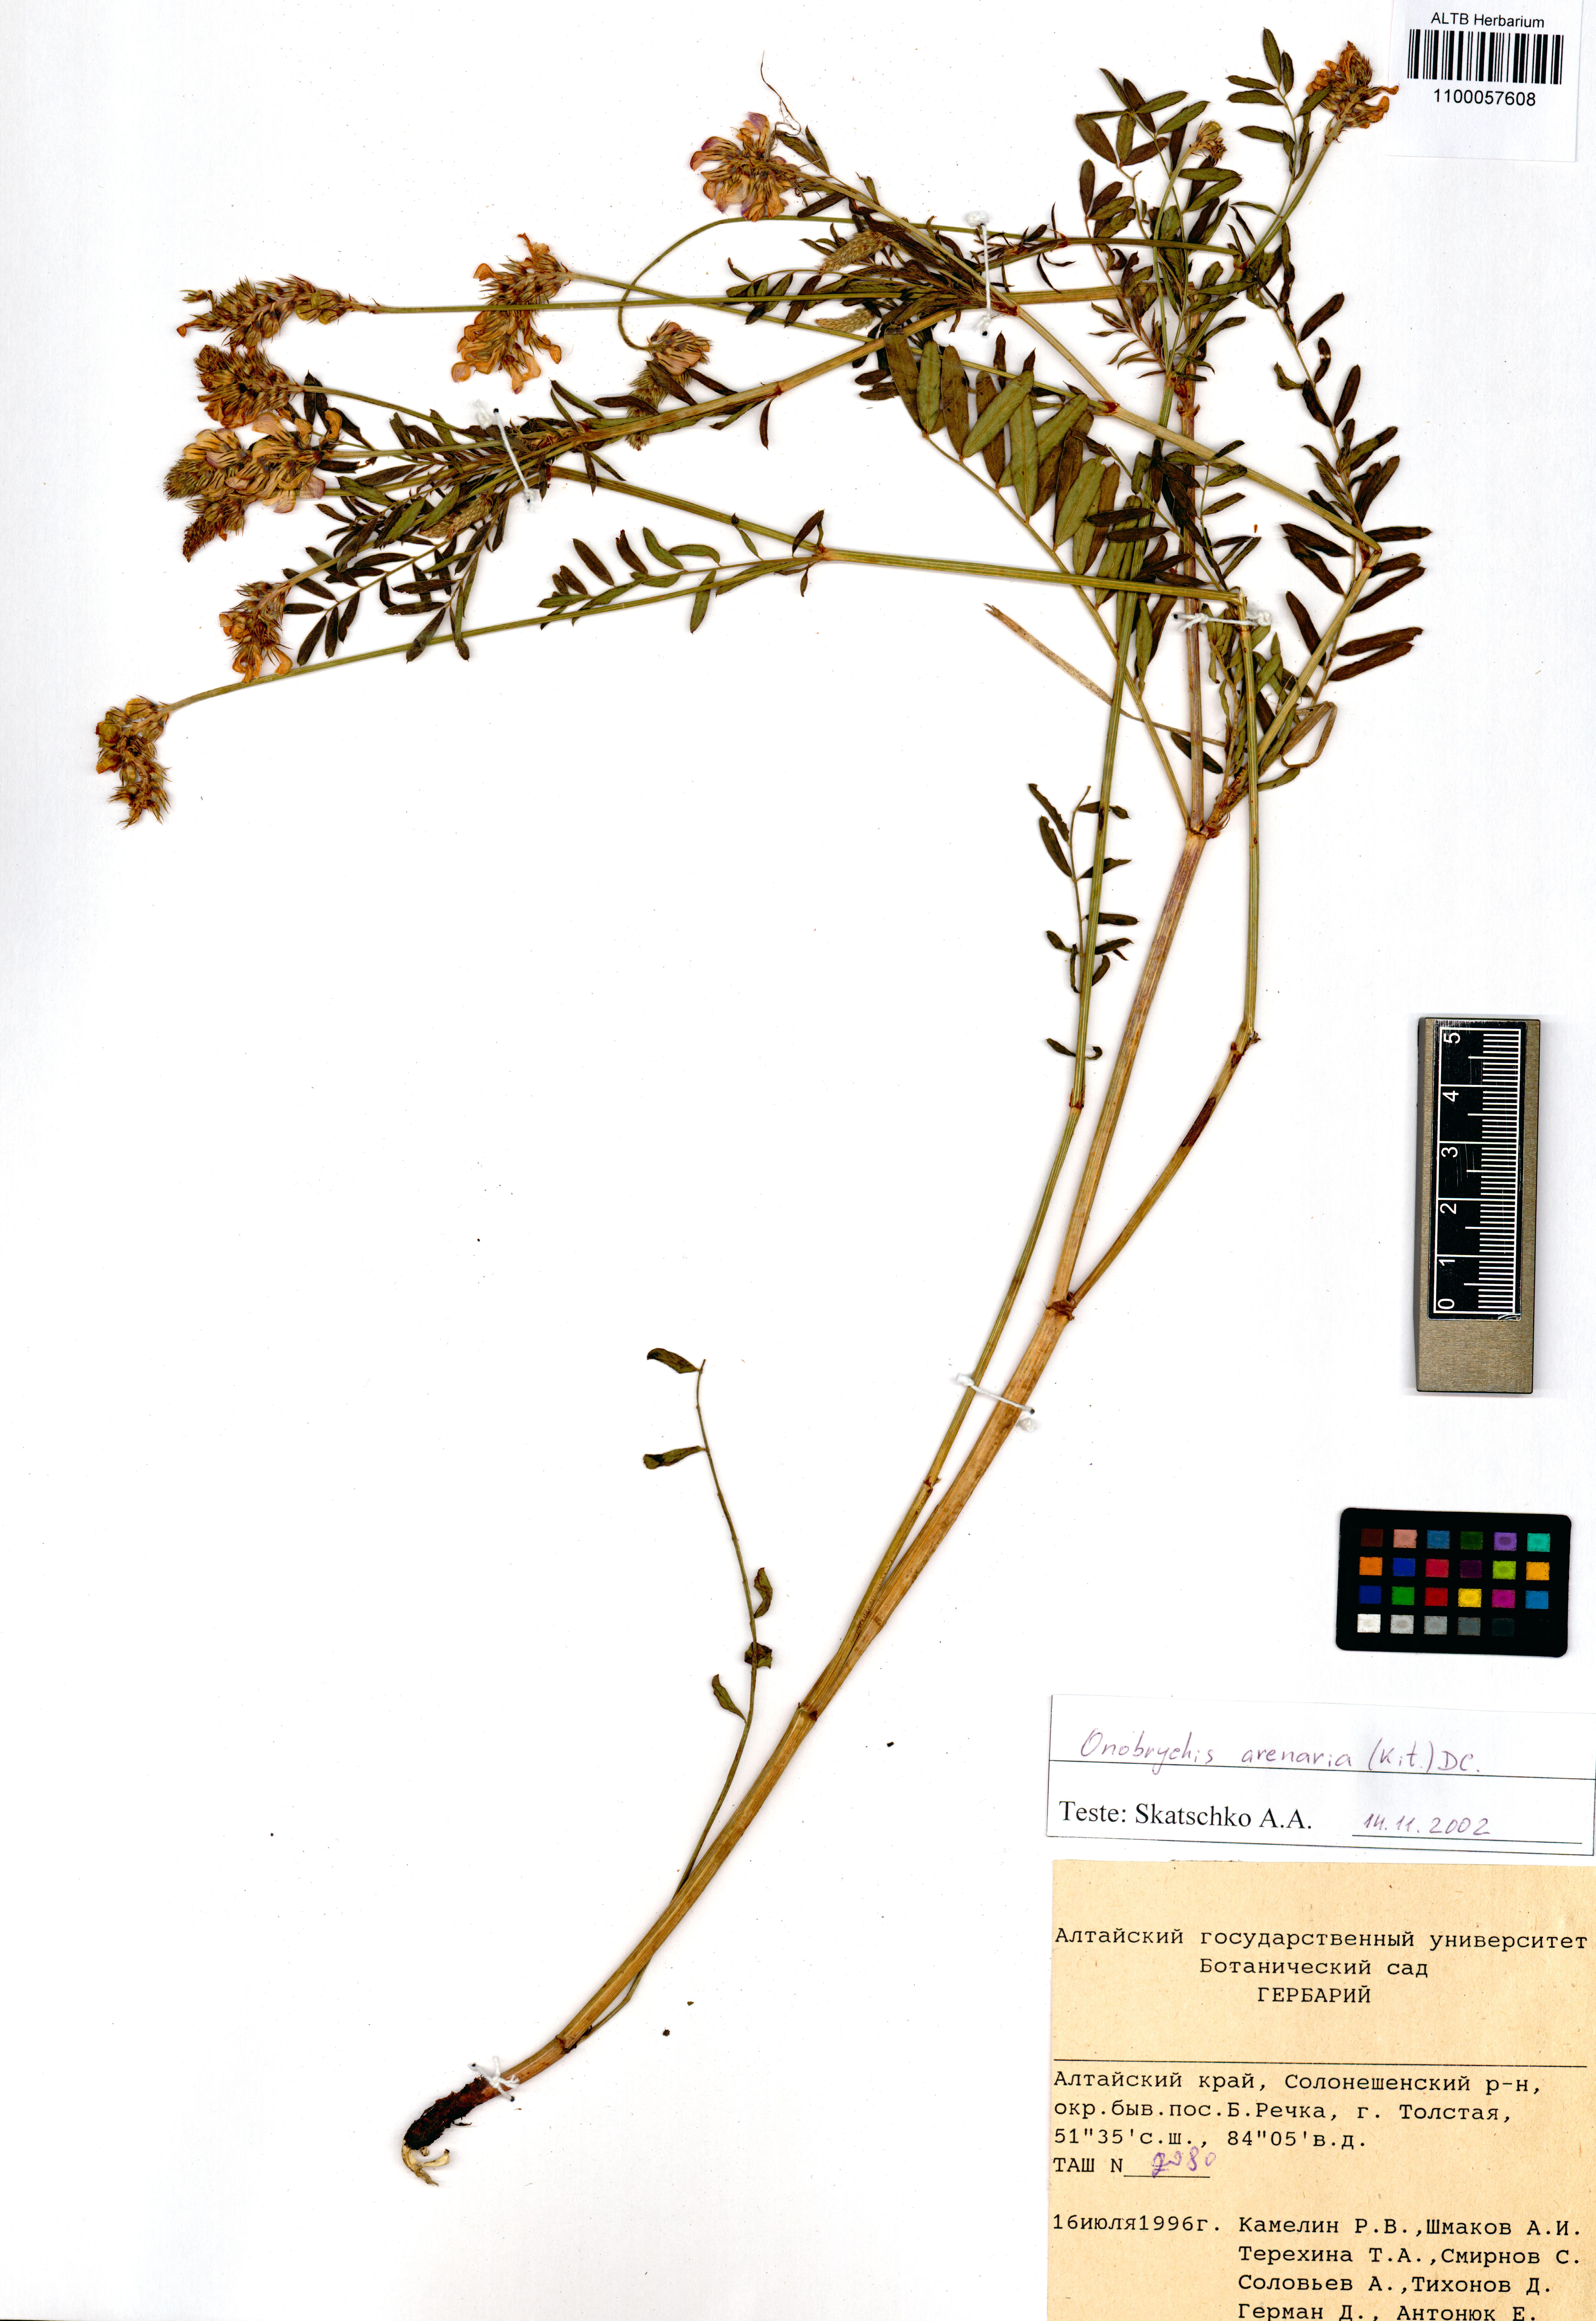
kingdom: Plantae
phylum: Tracheophyta
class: Magnoliopsida
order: Fabales
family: Fabaceae
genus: Onobrychis
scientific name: Onobrychis arenaria
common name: Sand esparcet
